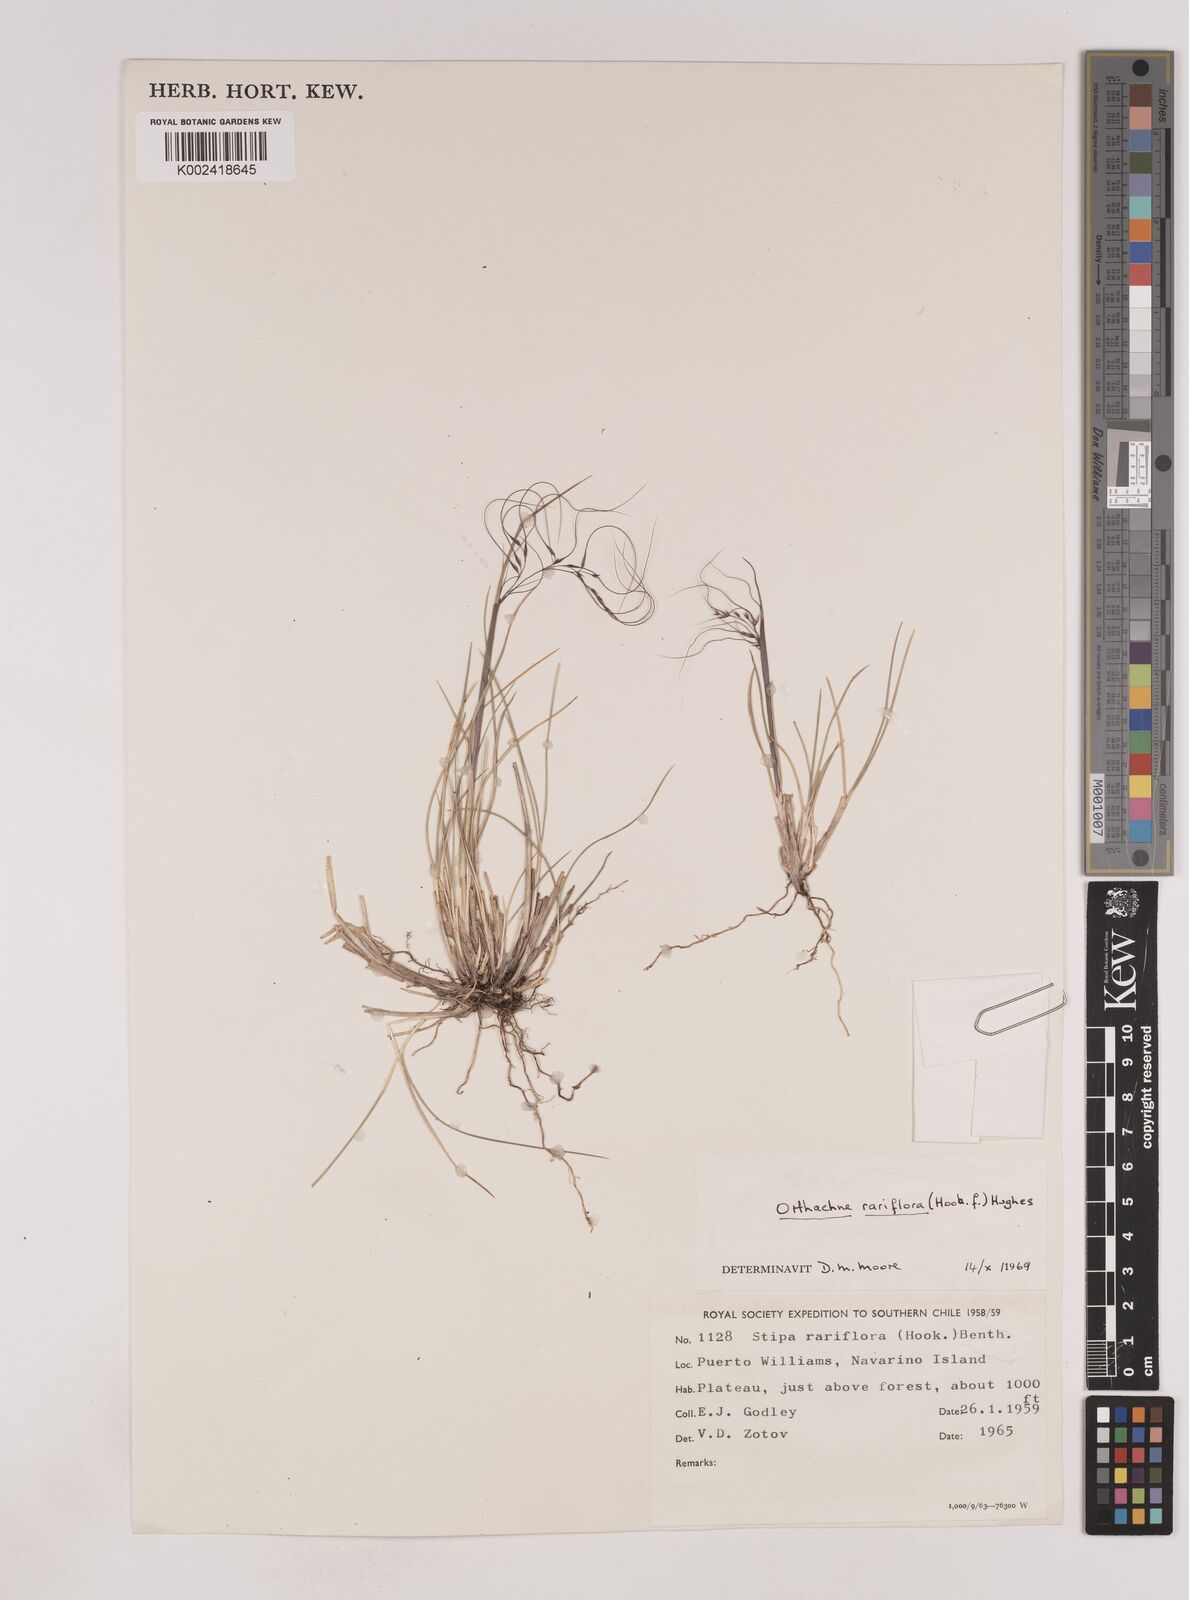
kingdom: Plantae
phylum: Tracheophyta
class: Liliopsida
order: Poales
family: Poaceae
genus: Ortachne
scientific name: Ortachne rariflora
